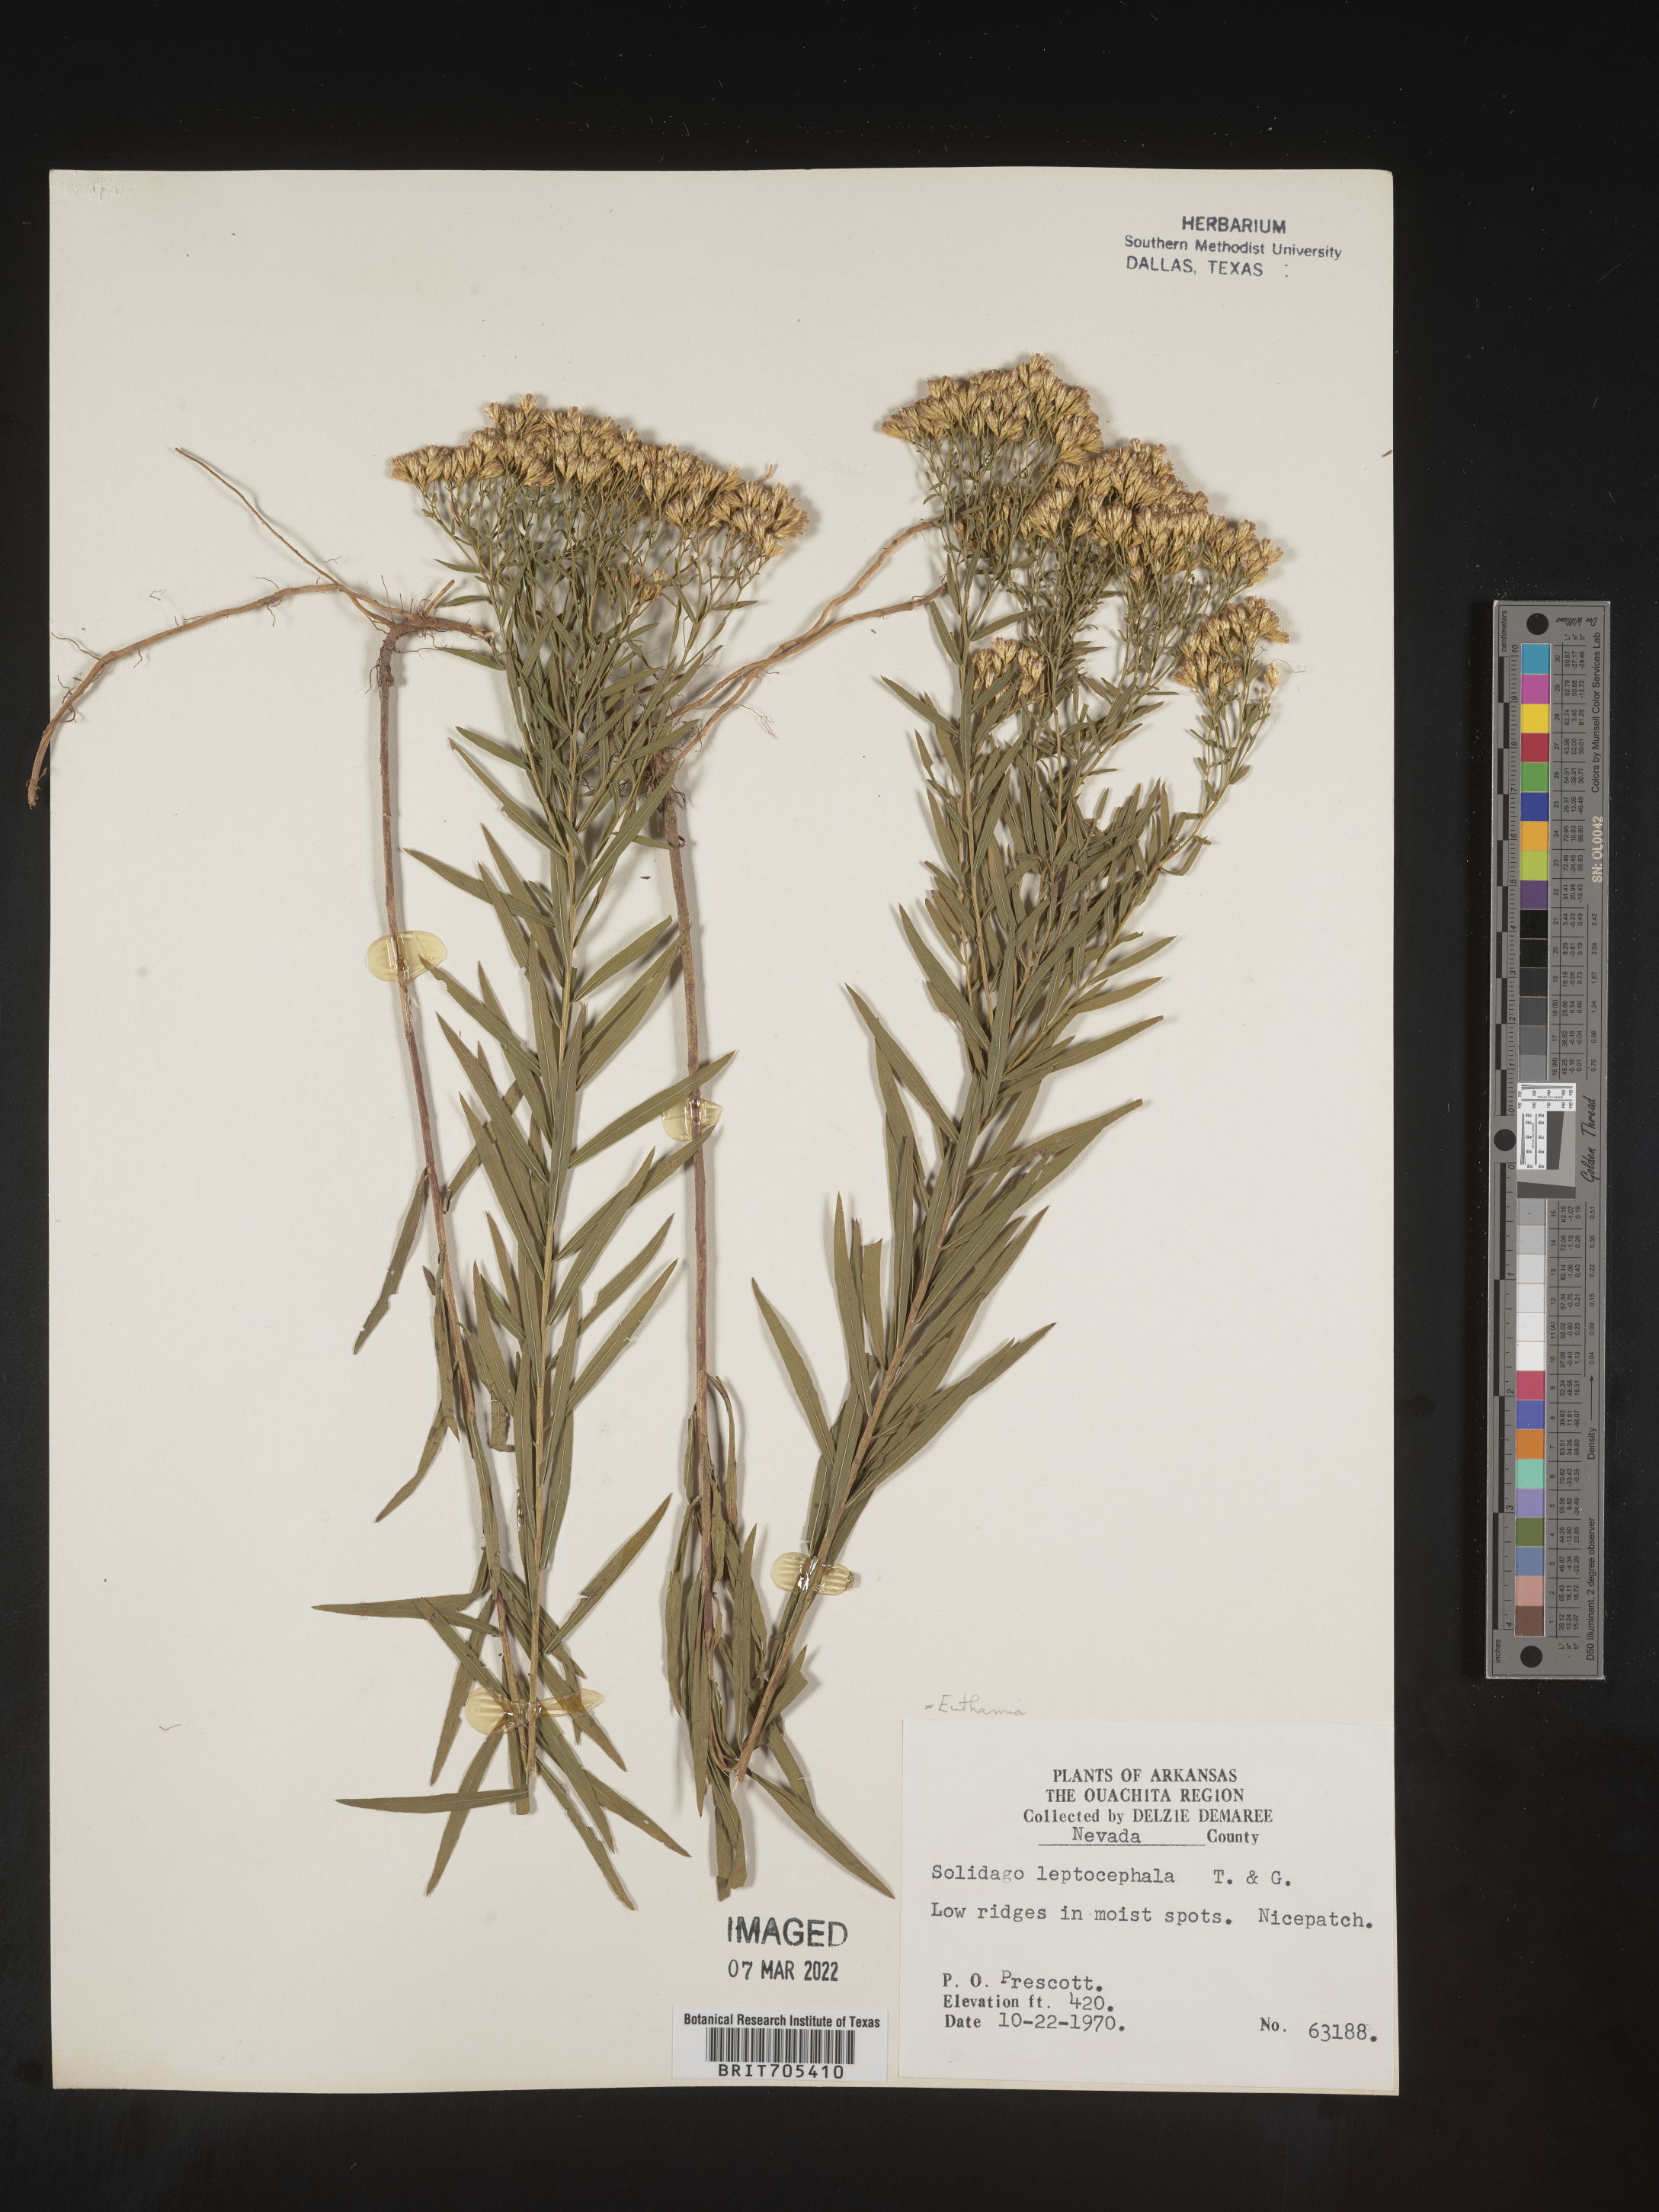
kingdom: Plantae
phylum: Tracheophyta
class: Magnoliopsida
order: Asterales
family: Asteraceae
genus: Euthamia
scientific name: Euthamia leptocephala
